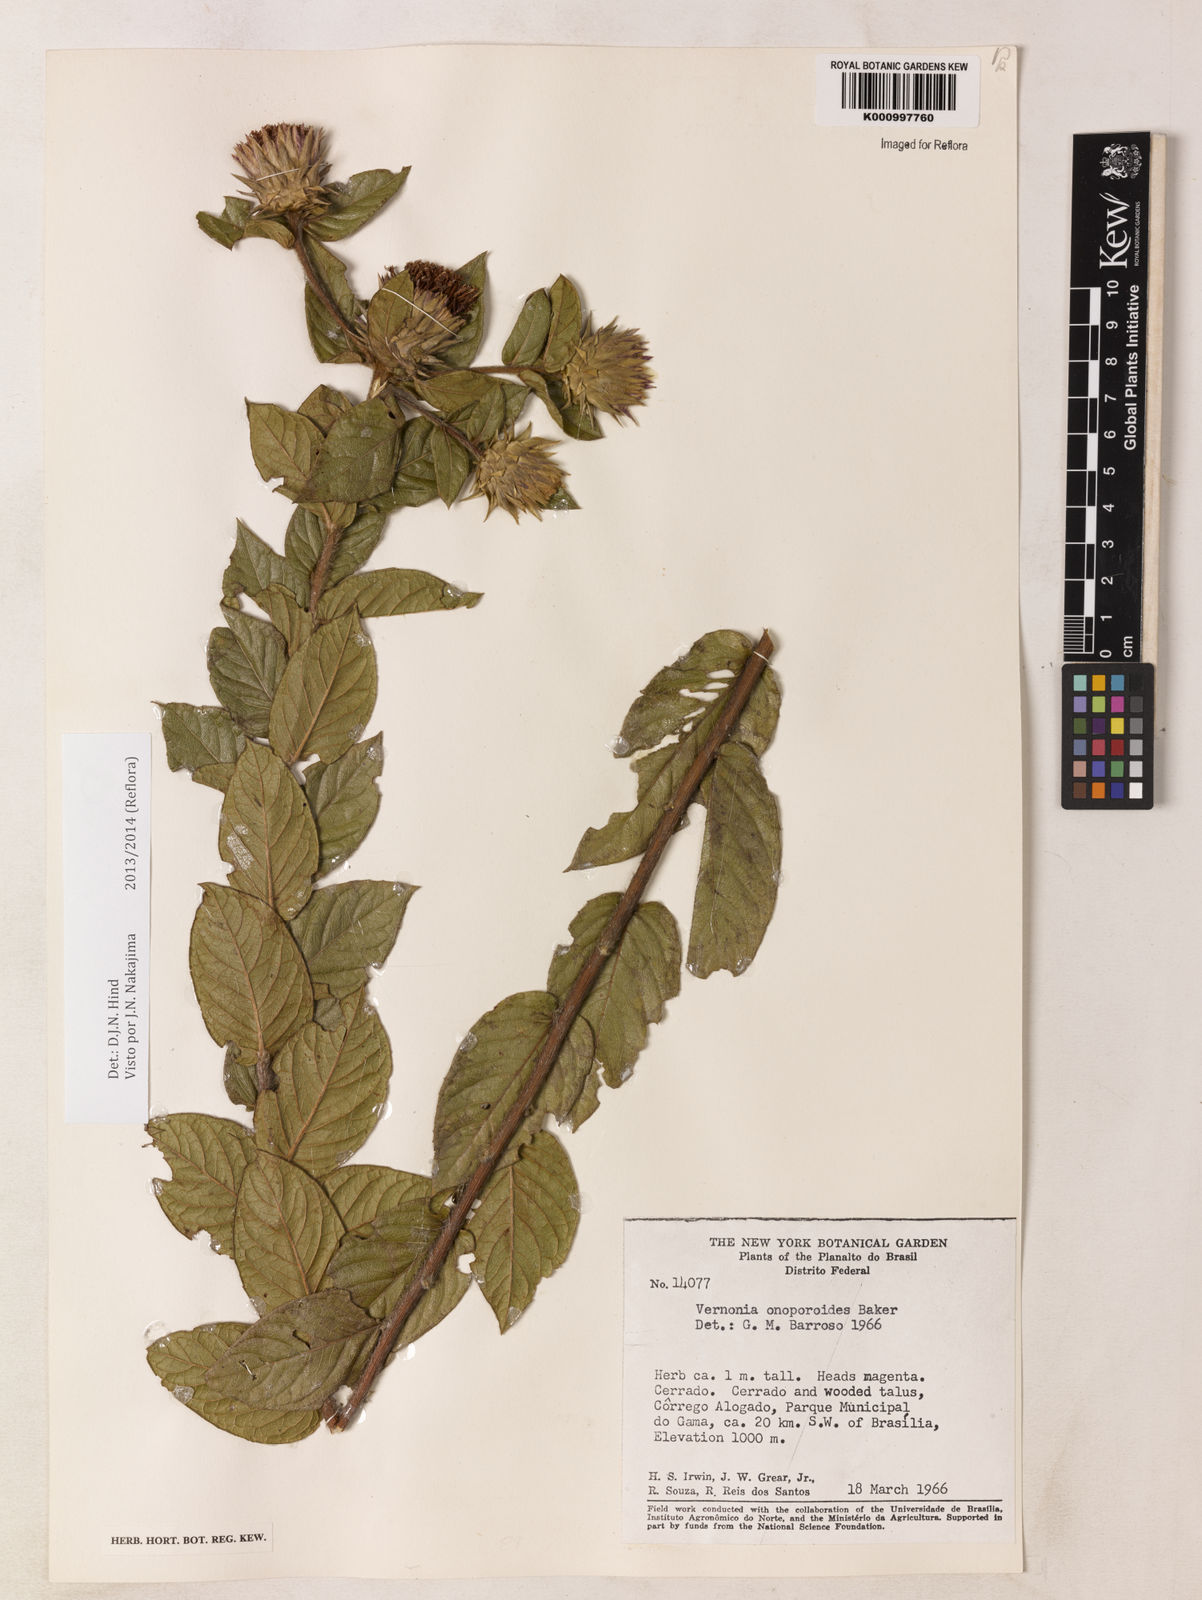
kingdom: Plantae
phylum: Tracheophyta
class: Magnoliopsida
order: Asterales
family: Asteraceae
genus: Lessingianthus
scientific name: Lessingianthus onopordioides
